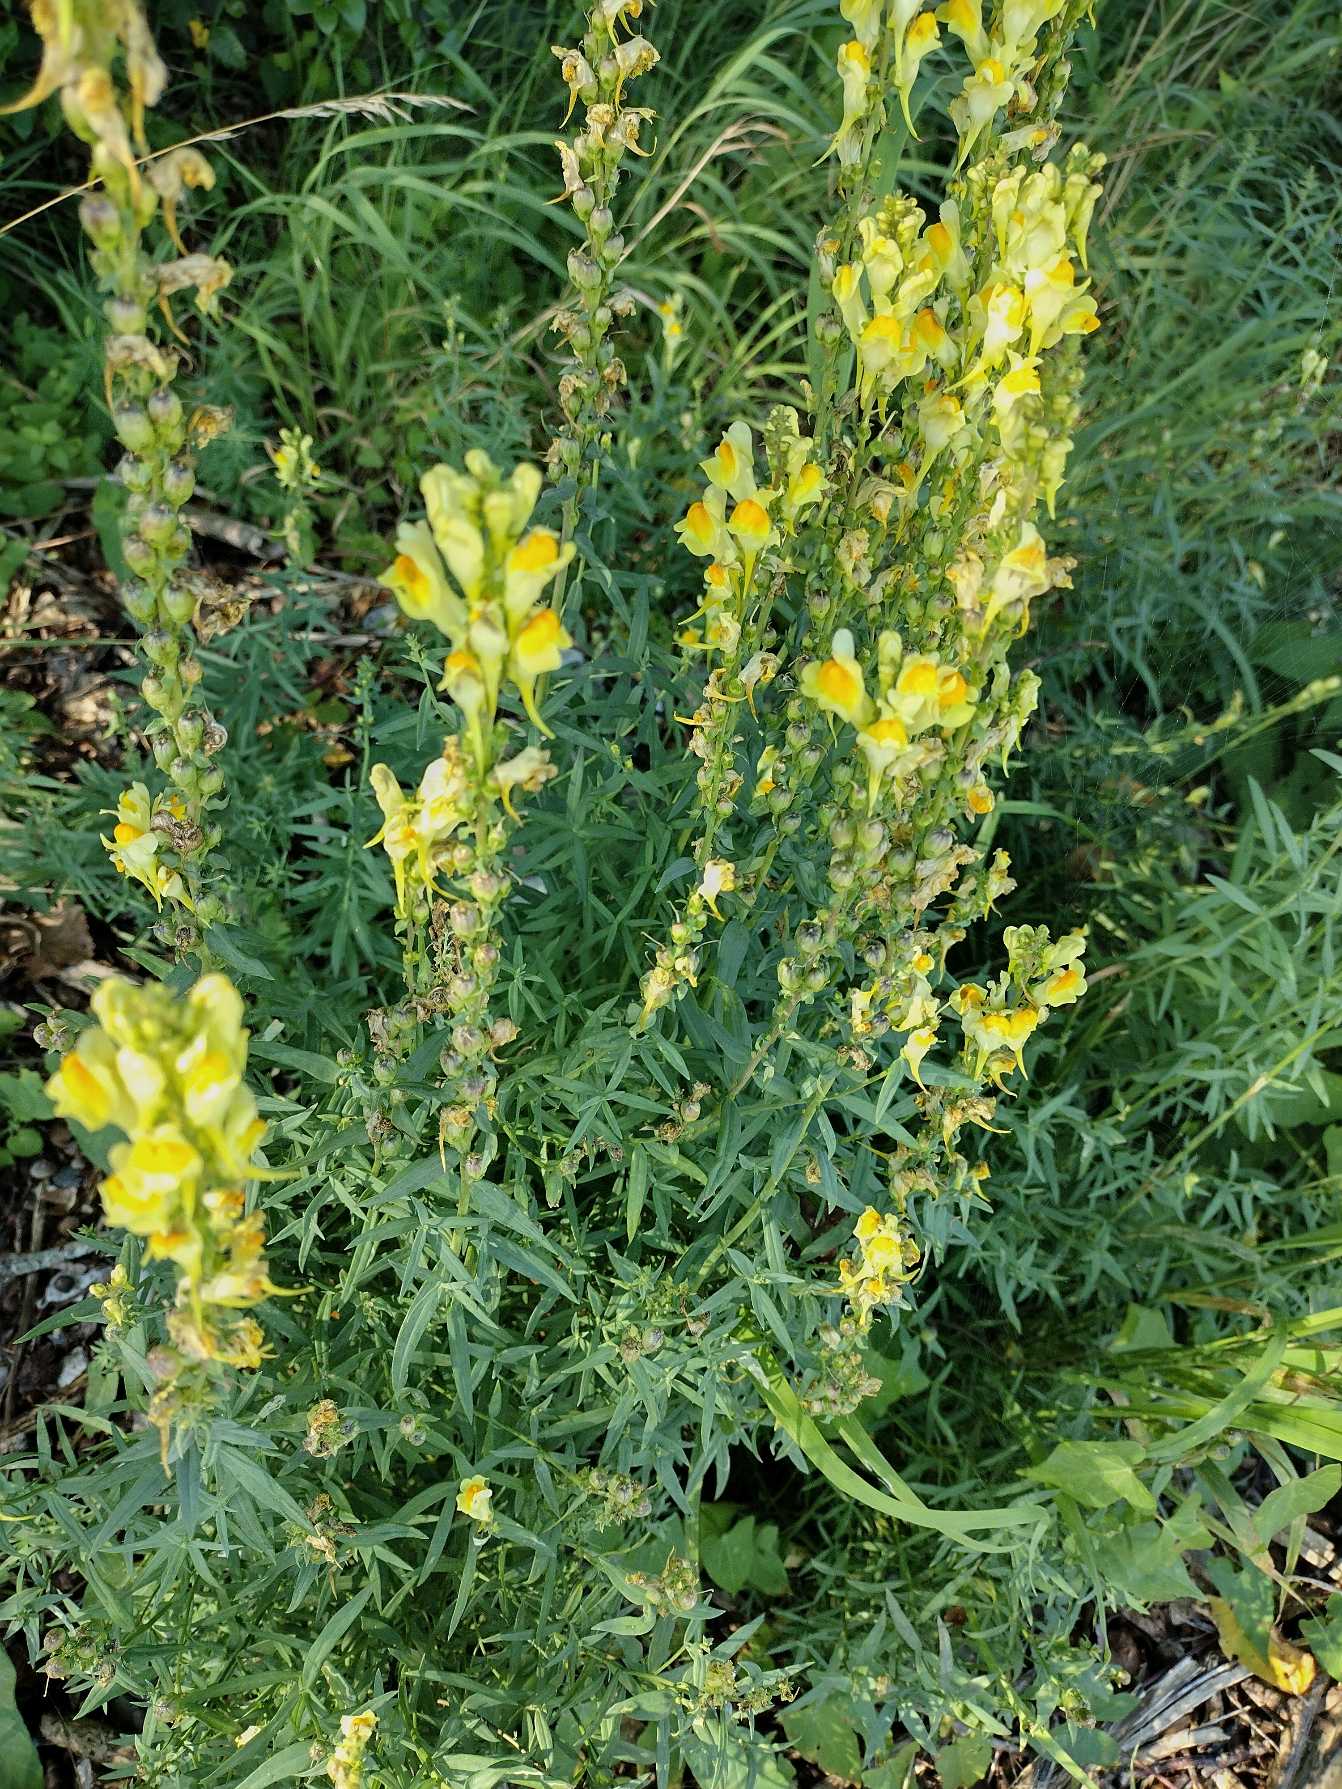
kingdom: Plantae
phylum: Tracheophyta
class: Magnoliopsida
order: Lamiales
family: Plantaginaceae
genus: Linaria
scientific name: Linaria vulgaris
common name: Almindelig torskemund
